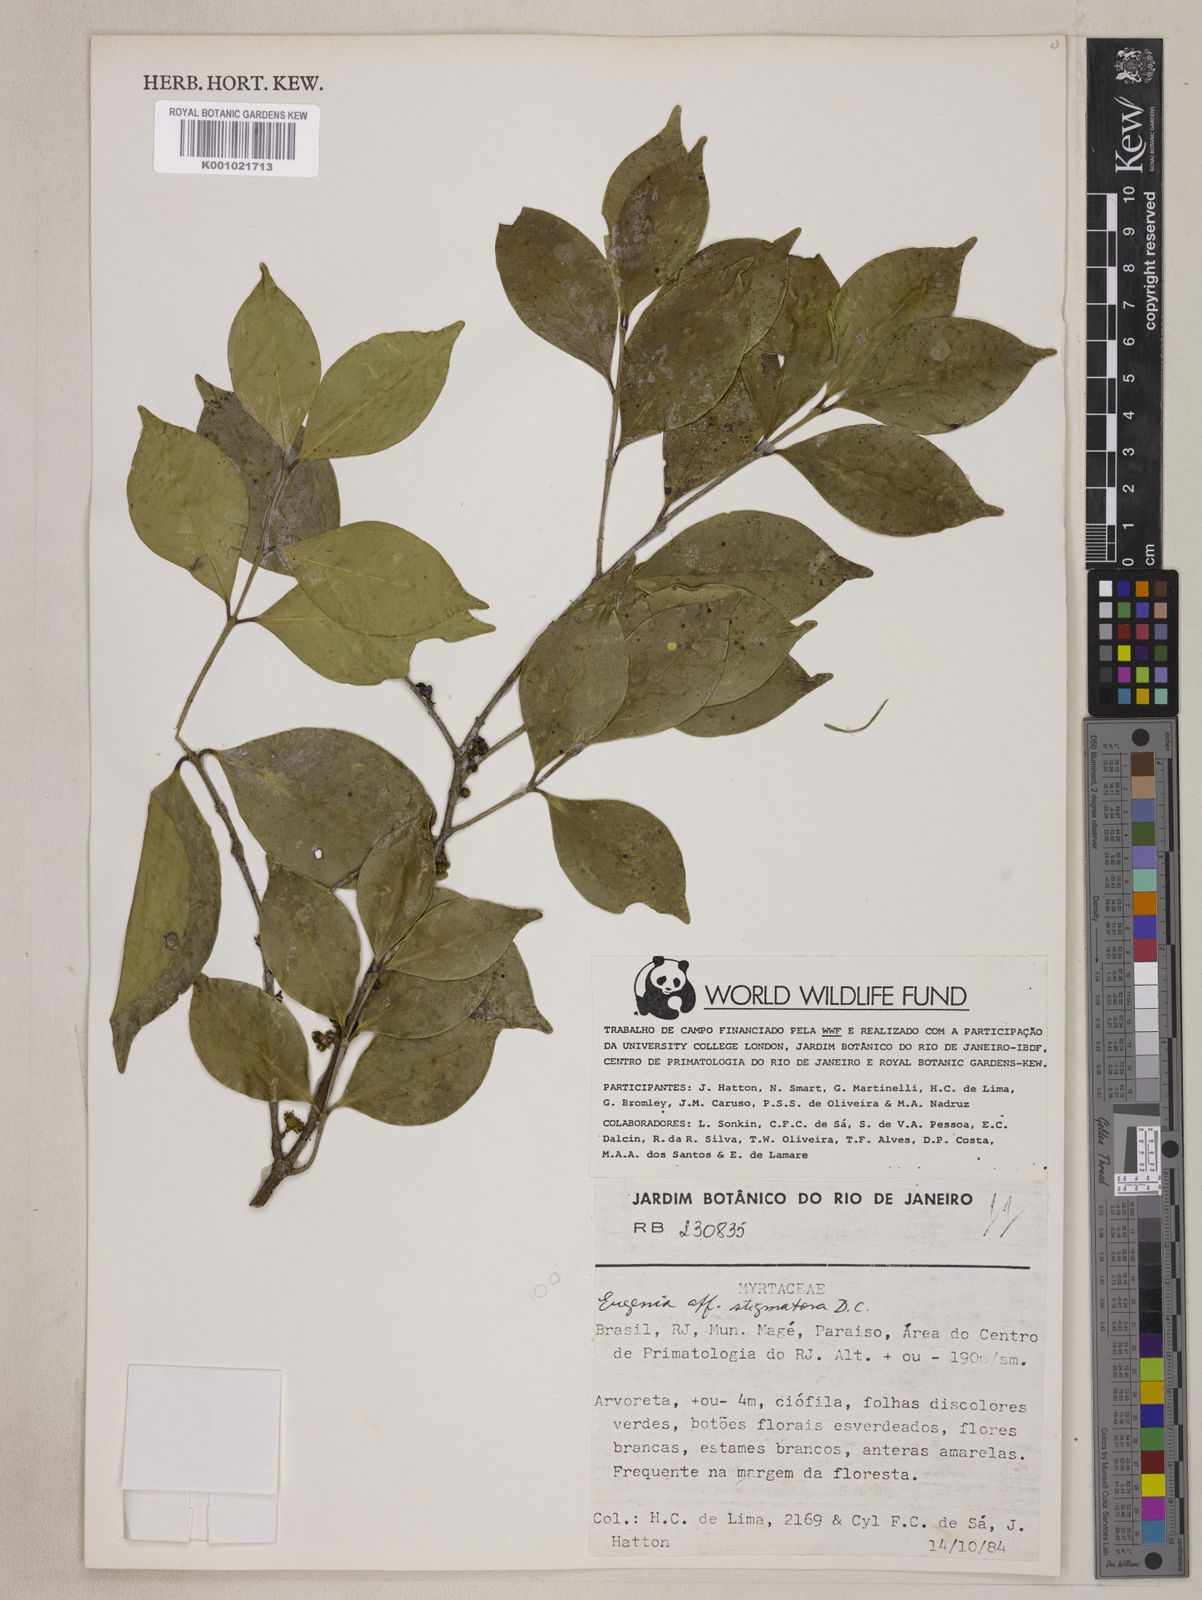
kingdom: Plantae
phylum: Tracheophyta
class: Magnoliopsida
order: Myrtales
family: Myrtaceae
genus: Eugenia
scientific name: Eugenia excelsa
